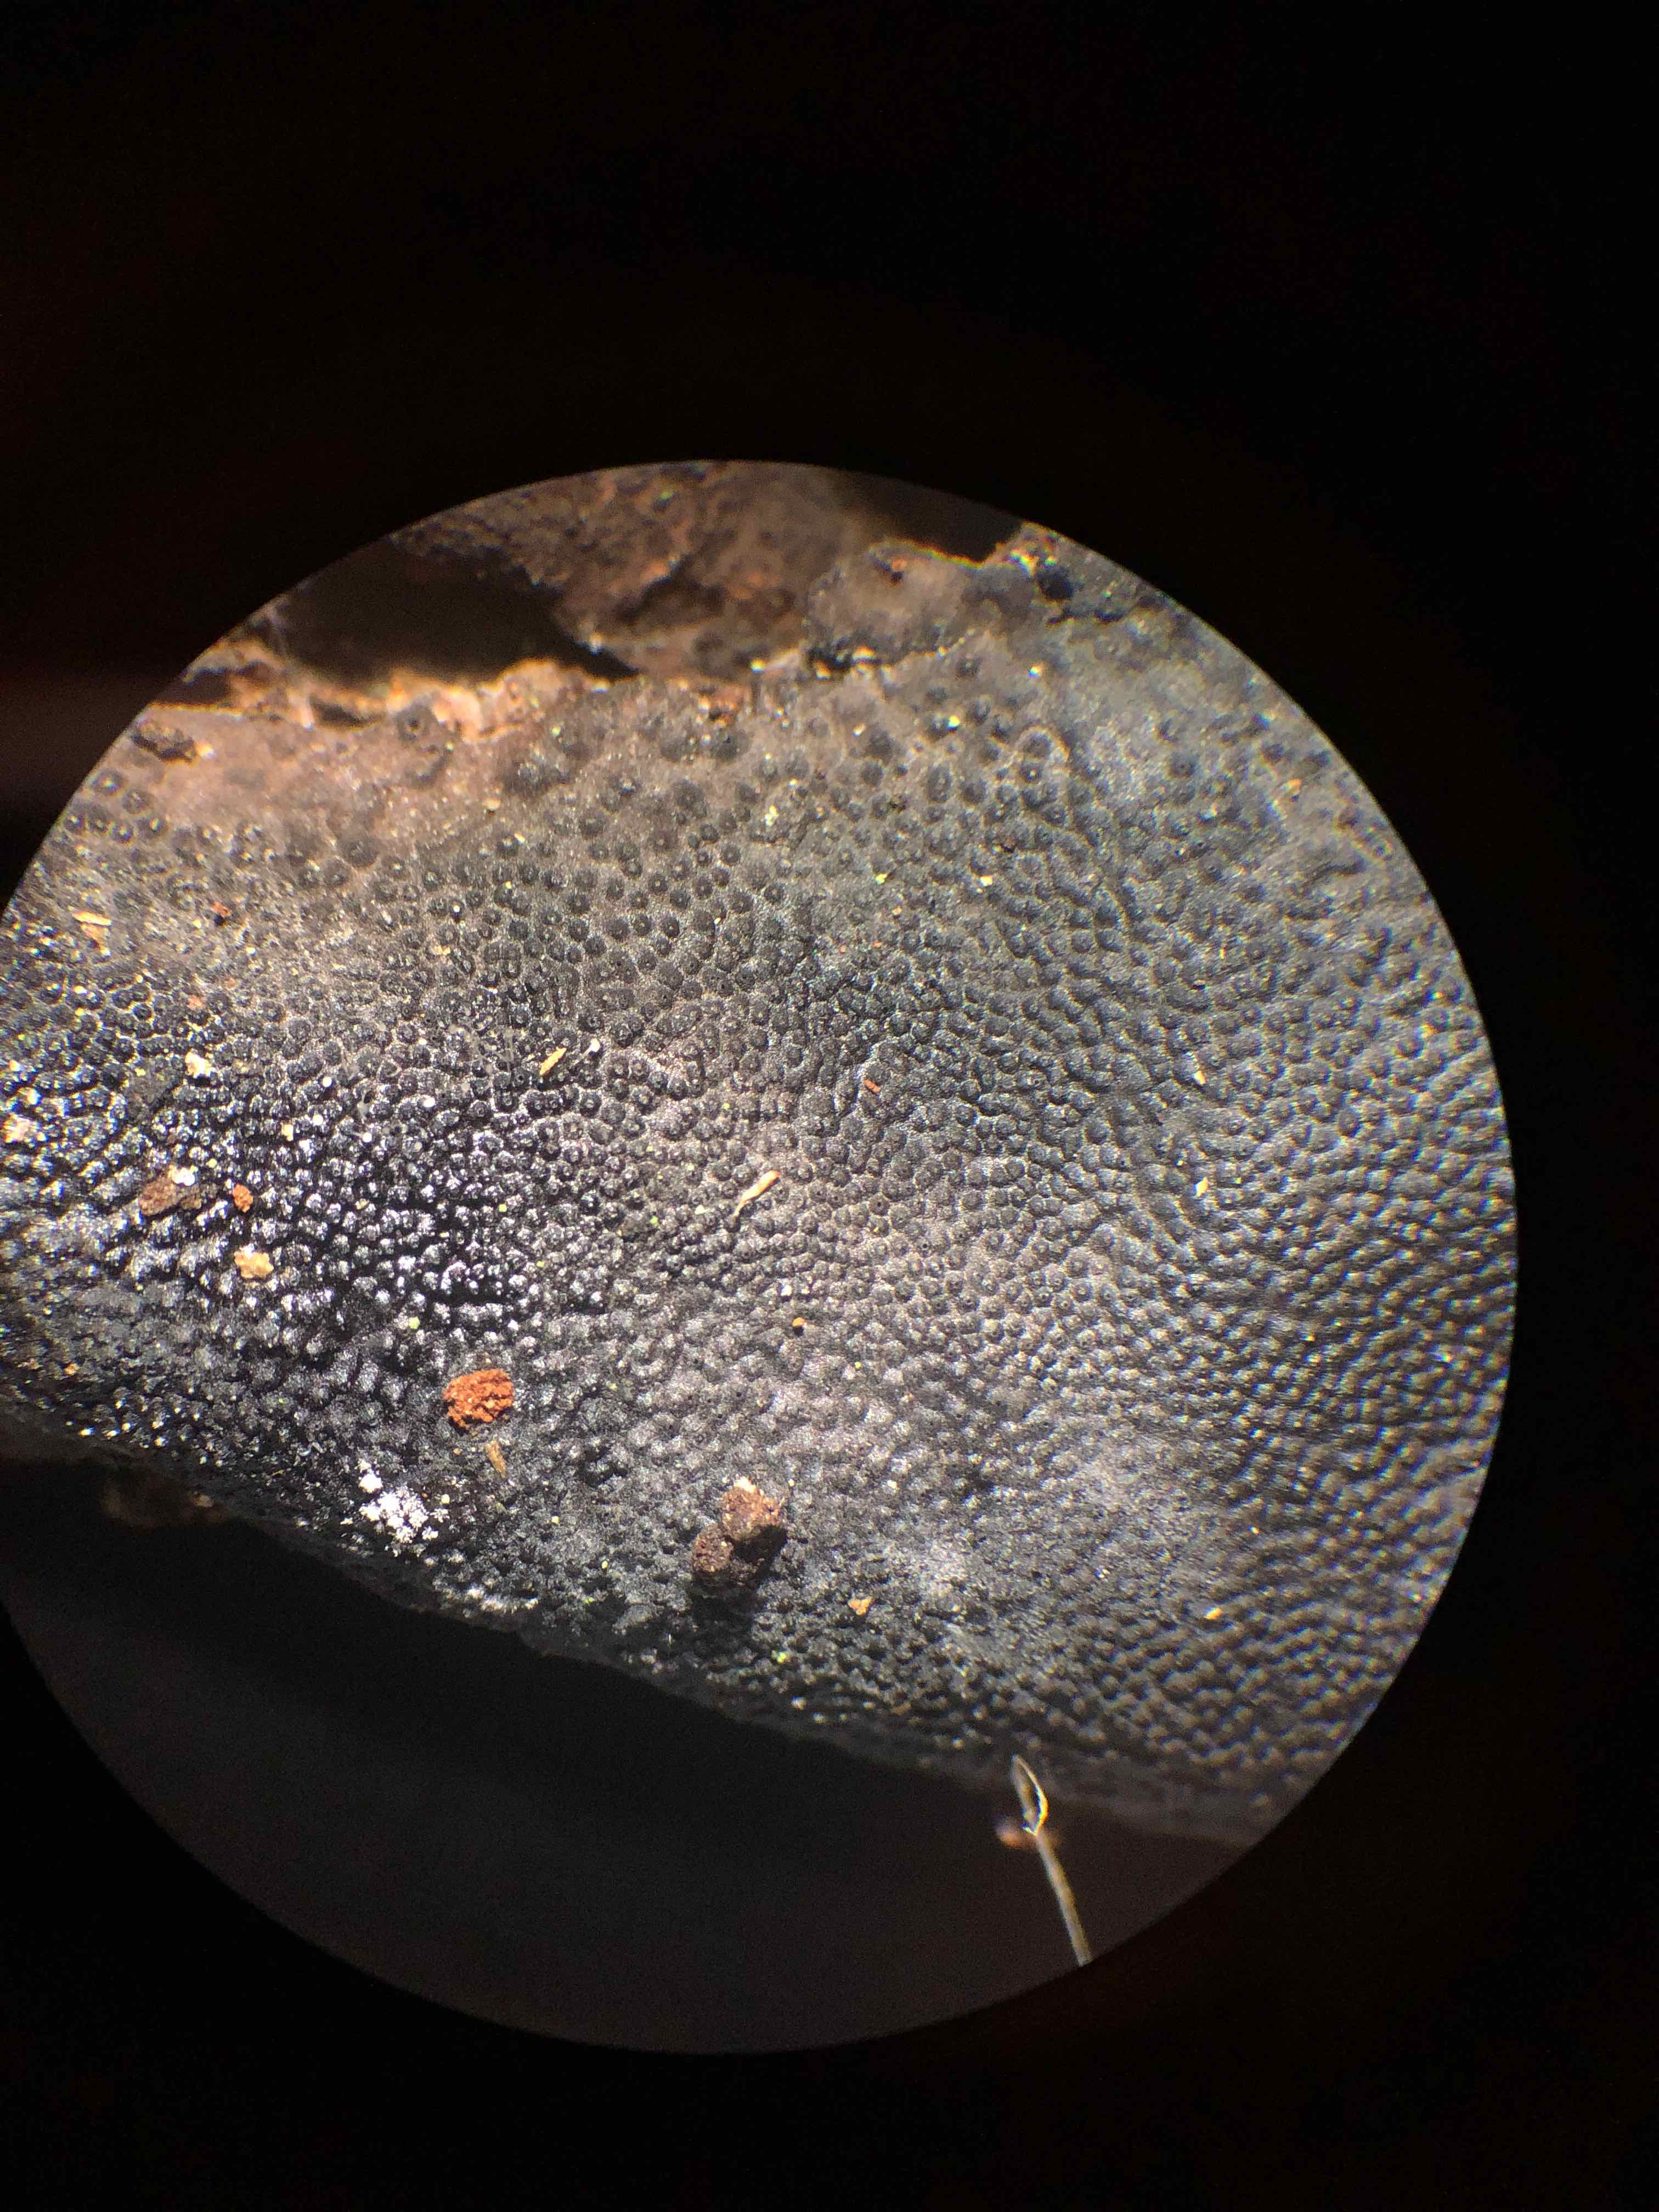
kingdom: Fungi
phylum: Ascomycota
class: Sordariomycetes
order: Boliniales
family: Boliniaceae
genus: Camarops
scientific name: Camarops polysperma
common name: elle-kulsnegl
